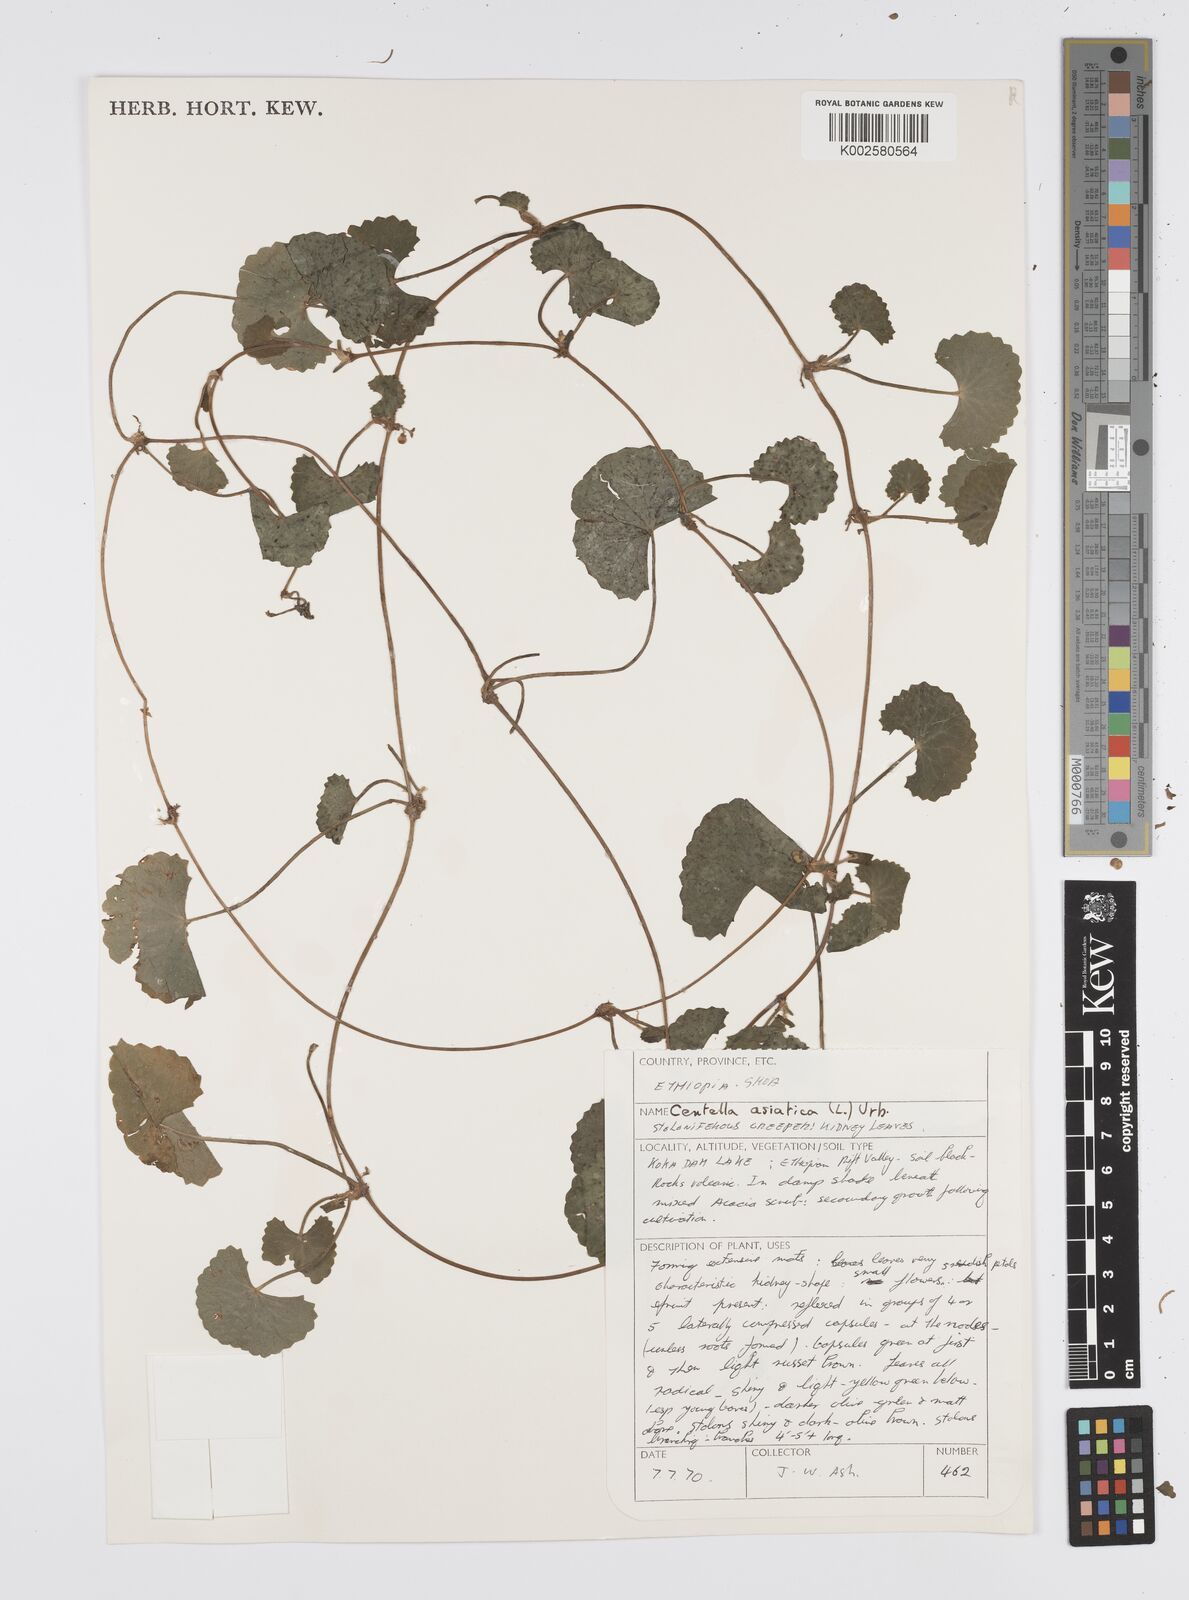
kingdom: Plantae
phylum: Tracheophyta
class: Magnoliopsida
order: Apiales
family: Apiaceae
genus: Centella
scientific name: Centella asiatica
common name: Spadeleaf
